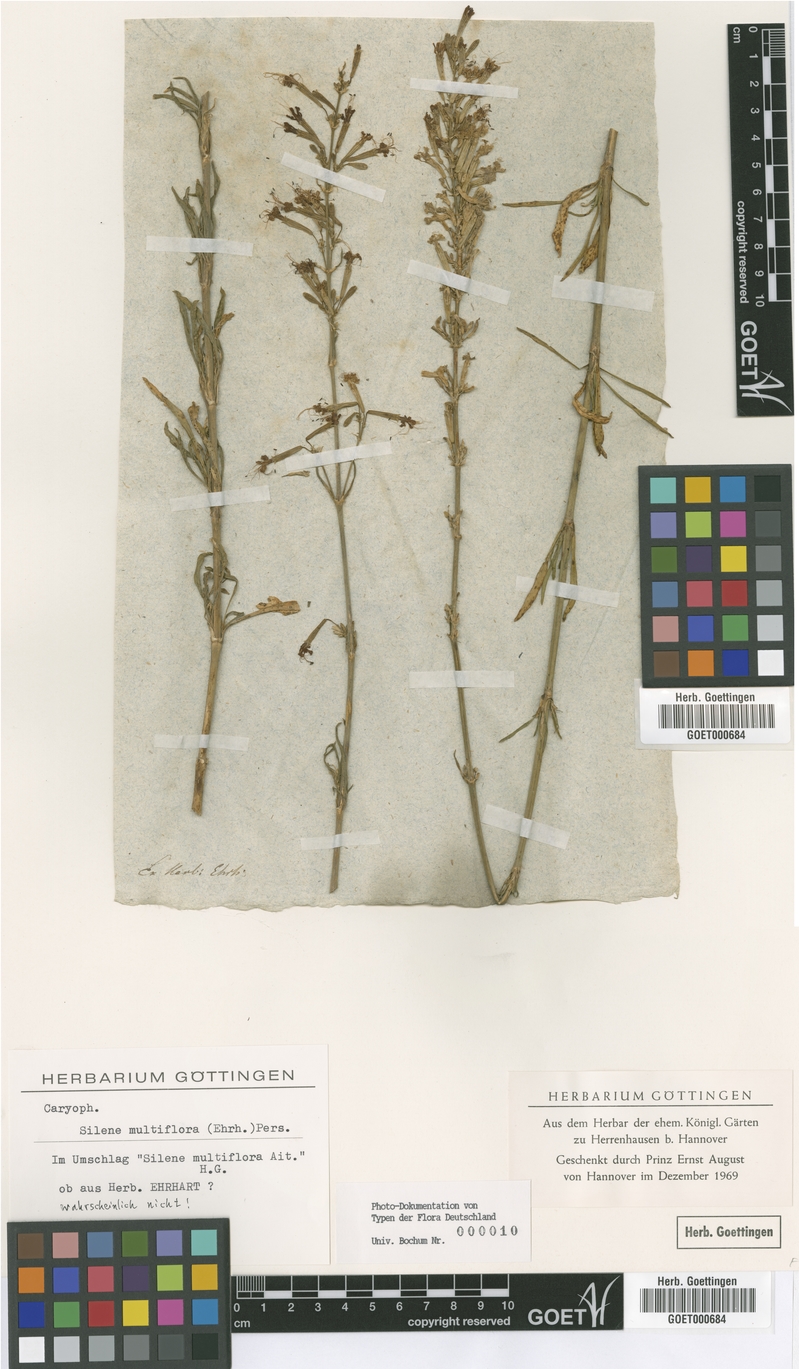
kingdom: Plantae
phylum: Tracheophyta
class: Magnoliopsida
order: Caryophyllales
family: Caryophyllaceae
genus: Silene
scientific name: Silene multiflora
